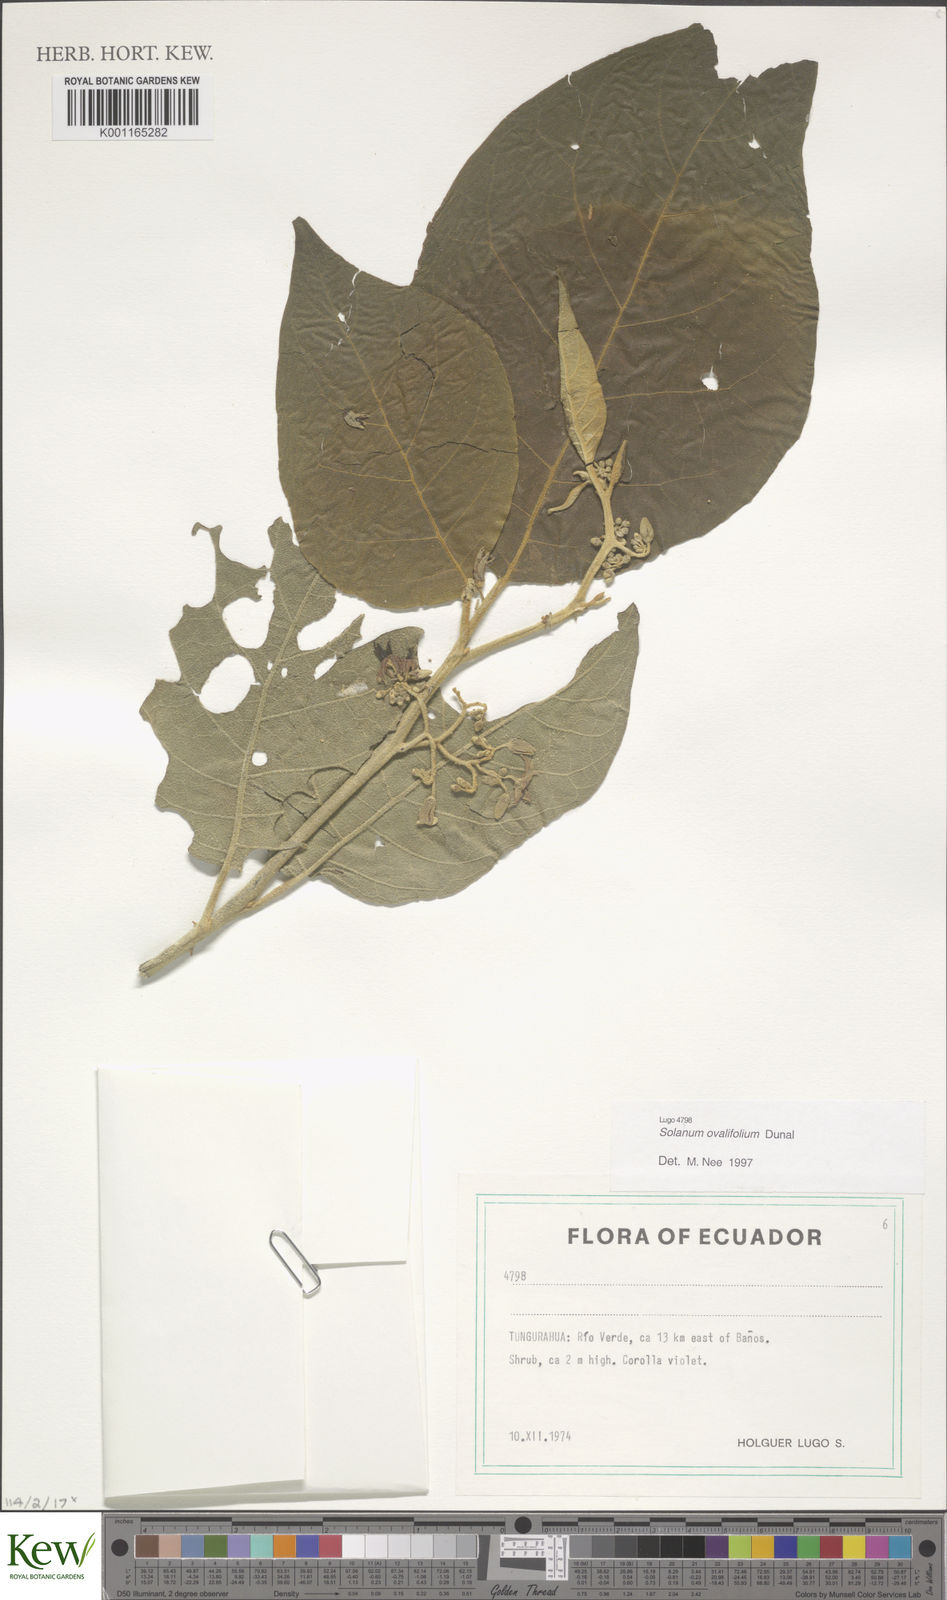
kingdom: Plantae
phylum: Tracheophyta
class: Magnoliopsida
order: Solanales
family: Solanaceae
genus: Solanum
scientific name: Solanum ovalifolium
